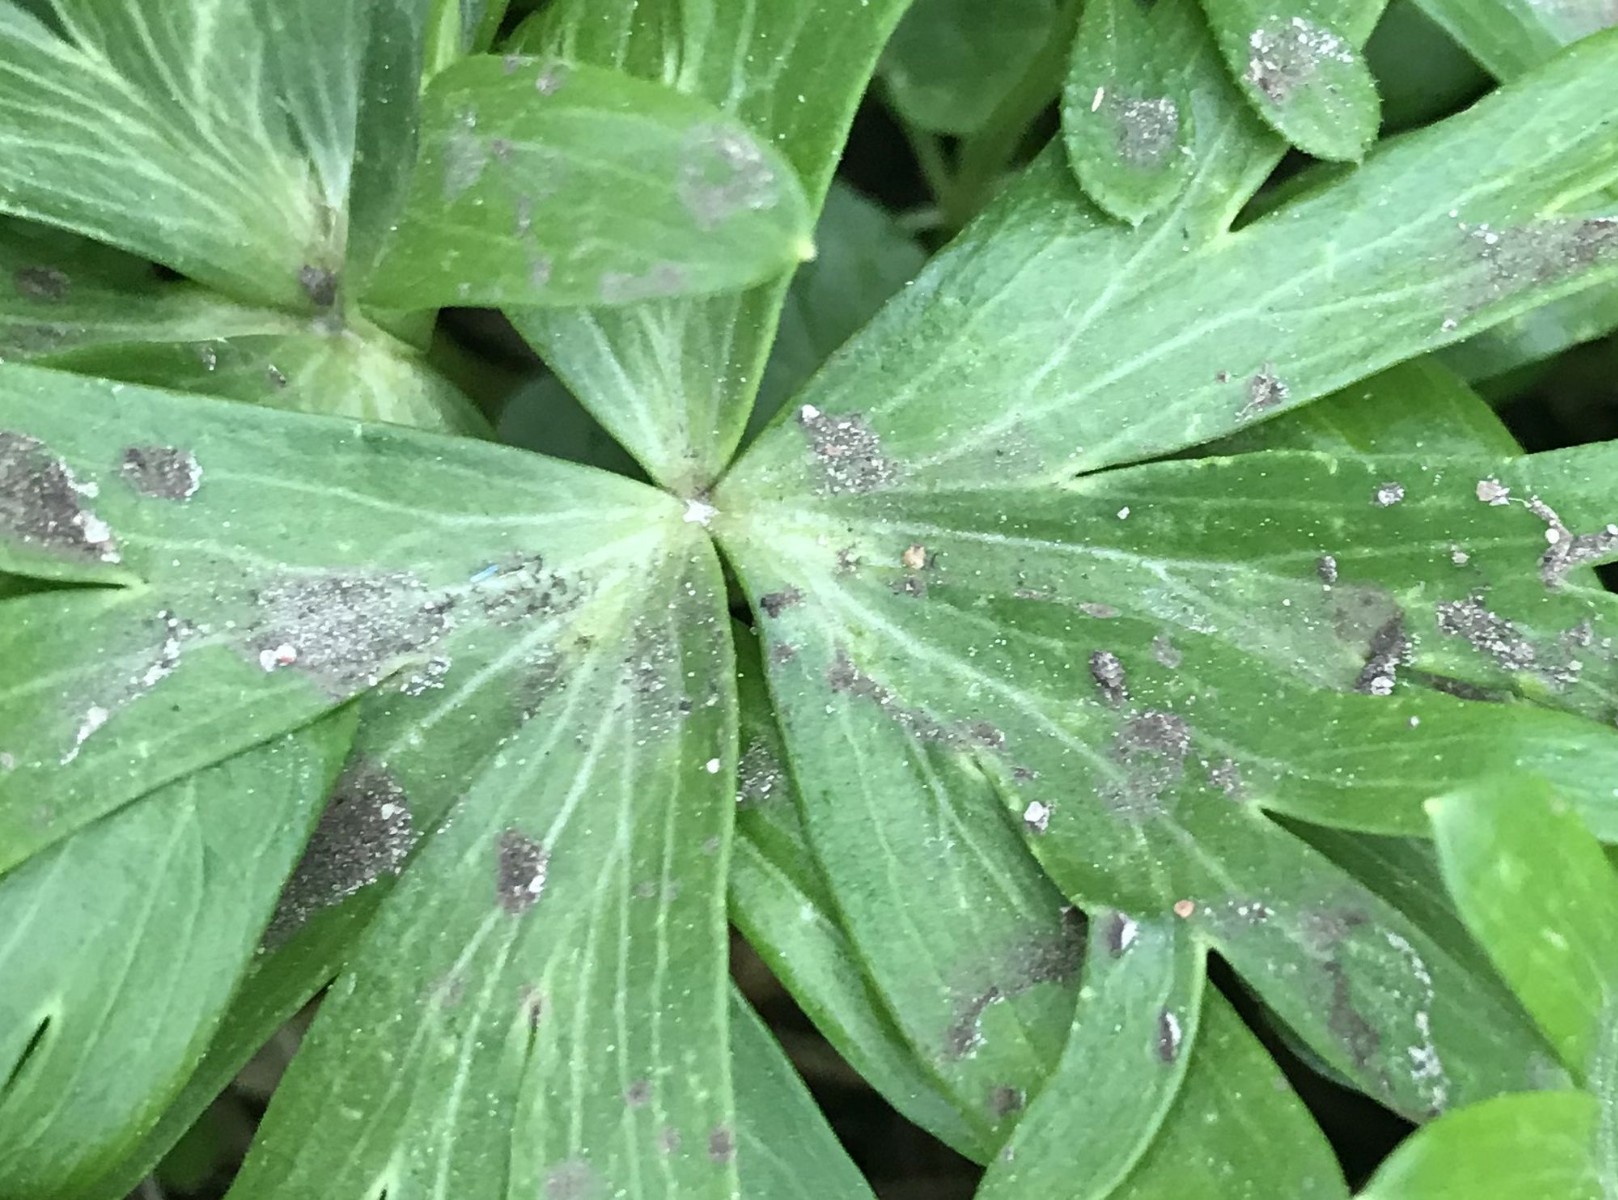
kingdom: Fungi
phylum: Basidiomycota
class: Ustilaginomycetes
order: Urocystidales
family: Urocystidaceae
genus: Urocystis
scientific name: Urocystis eranthidis
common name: erantis-brand
